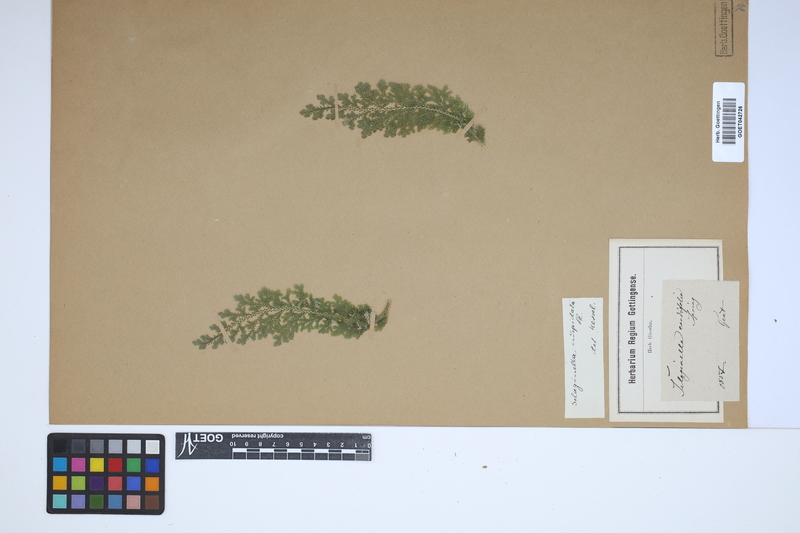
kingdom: Plantae
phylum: Tracheophyta
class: Lycopodiopsida
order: Selaginellales
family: Selaginellaceae
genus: Selaginella
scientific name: Selaginella pallescens
